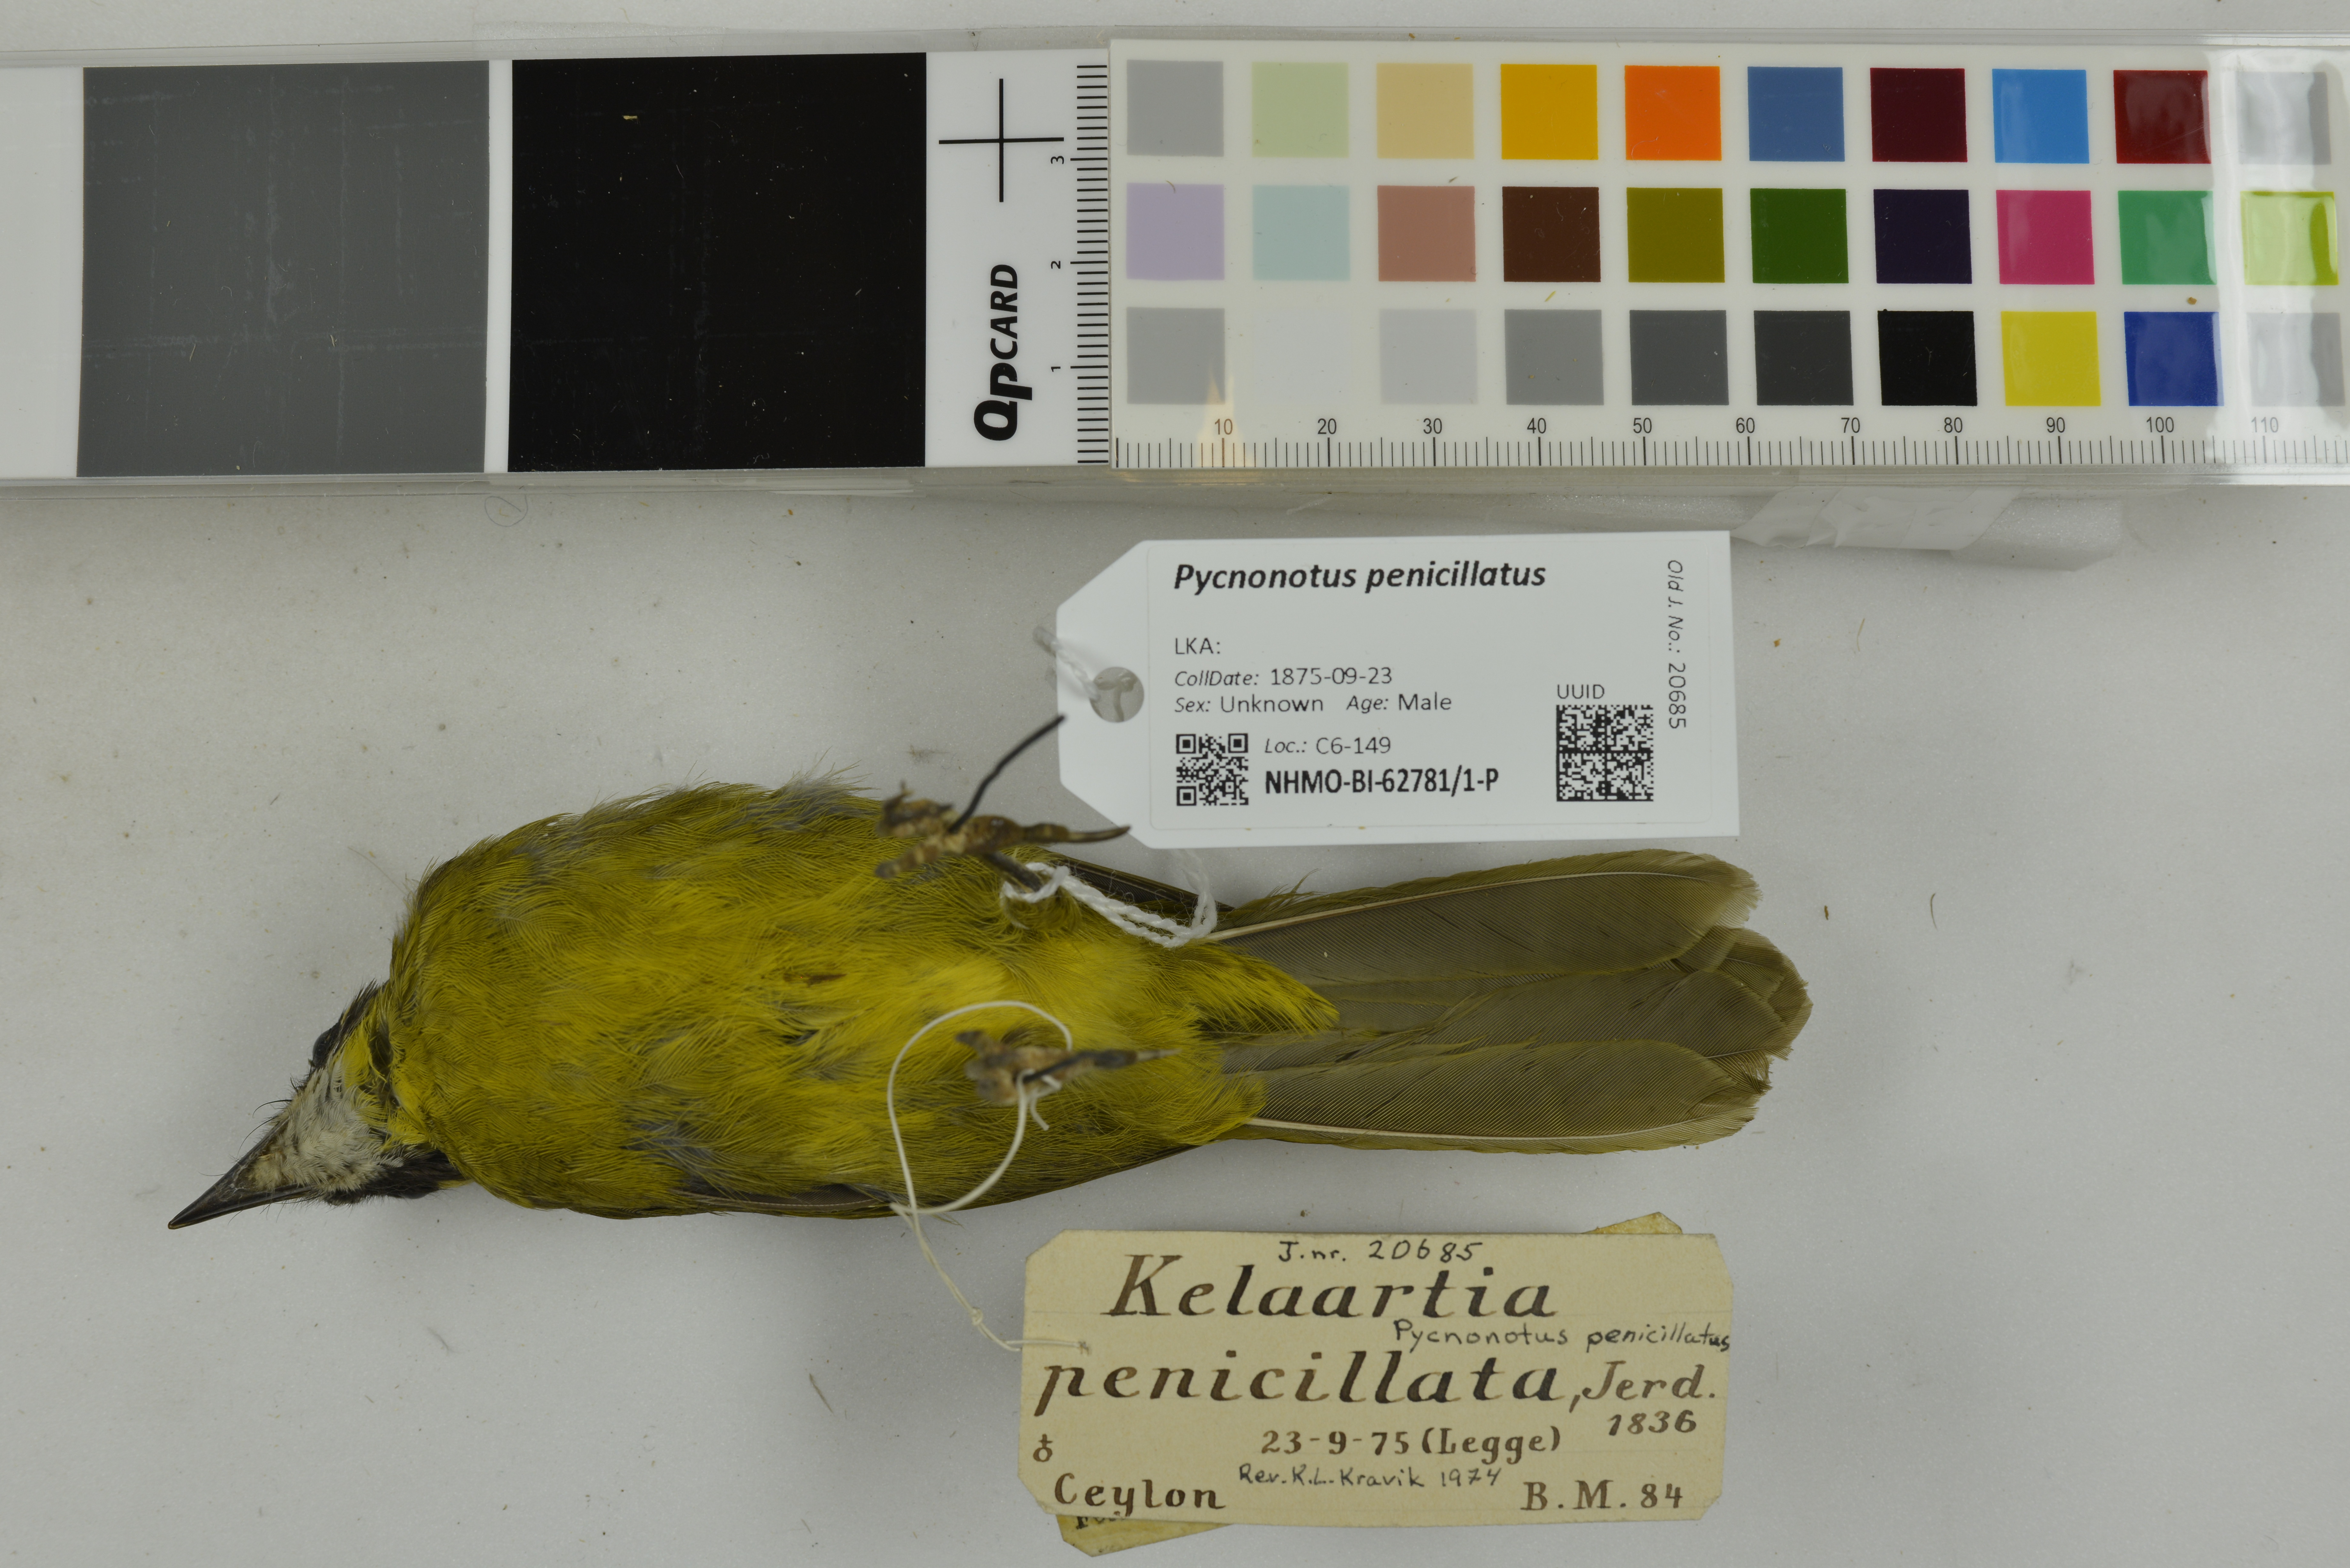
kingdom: Animalia
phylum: Chordata
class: Aves
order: Passeriformes
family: Pycnonotidae
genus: Pycnonotus
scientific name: Pycnonotus penicillatus
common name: Yellow-eared bulbul
